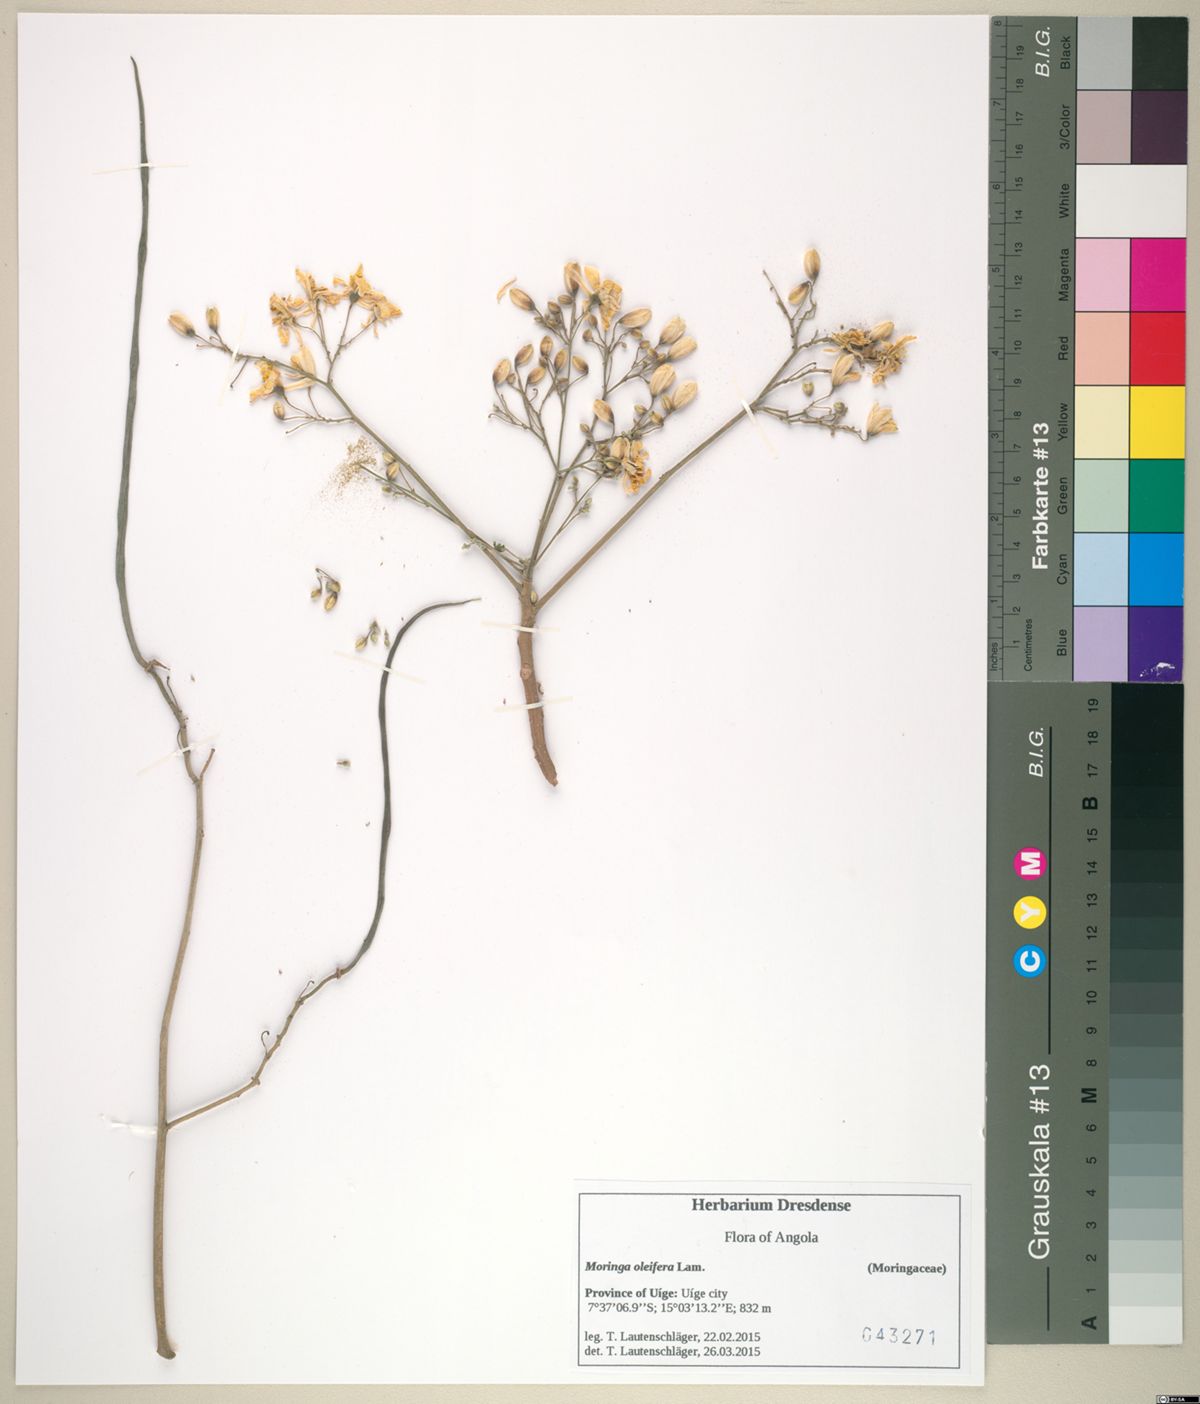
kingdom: Plantae
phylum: Tracheophyta
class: Magnoliopsida
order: Brassicales
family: Moringaceae
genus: Moringa
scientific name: Moringa oleifera
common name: Horseradish-tree
